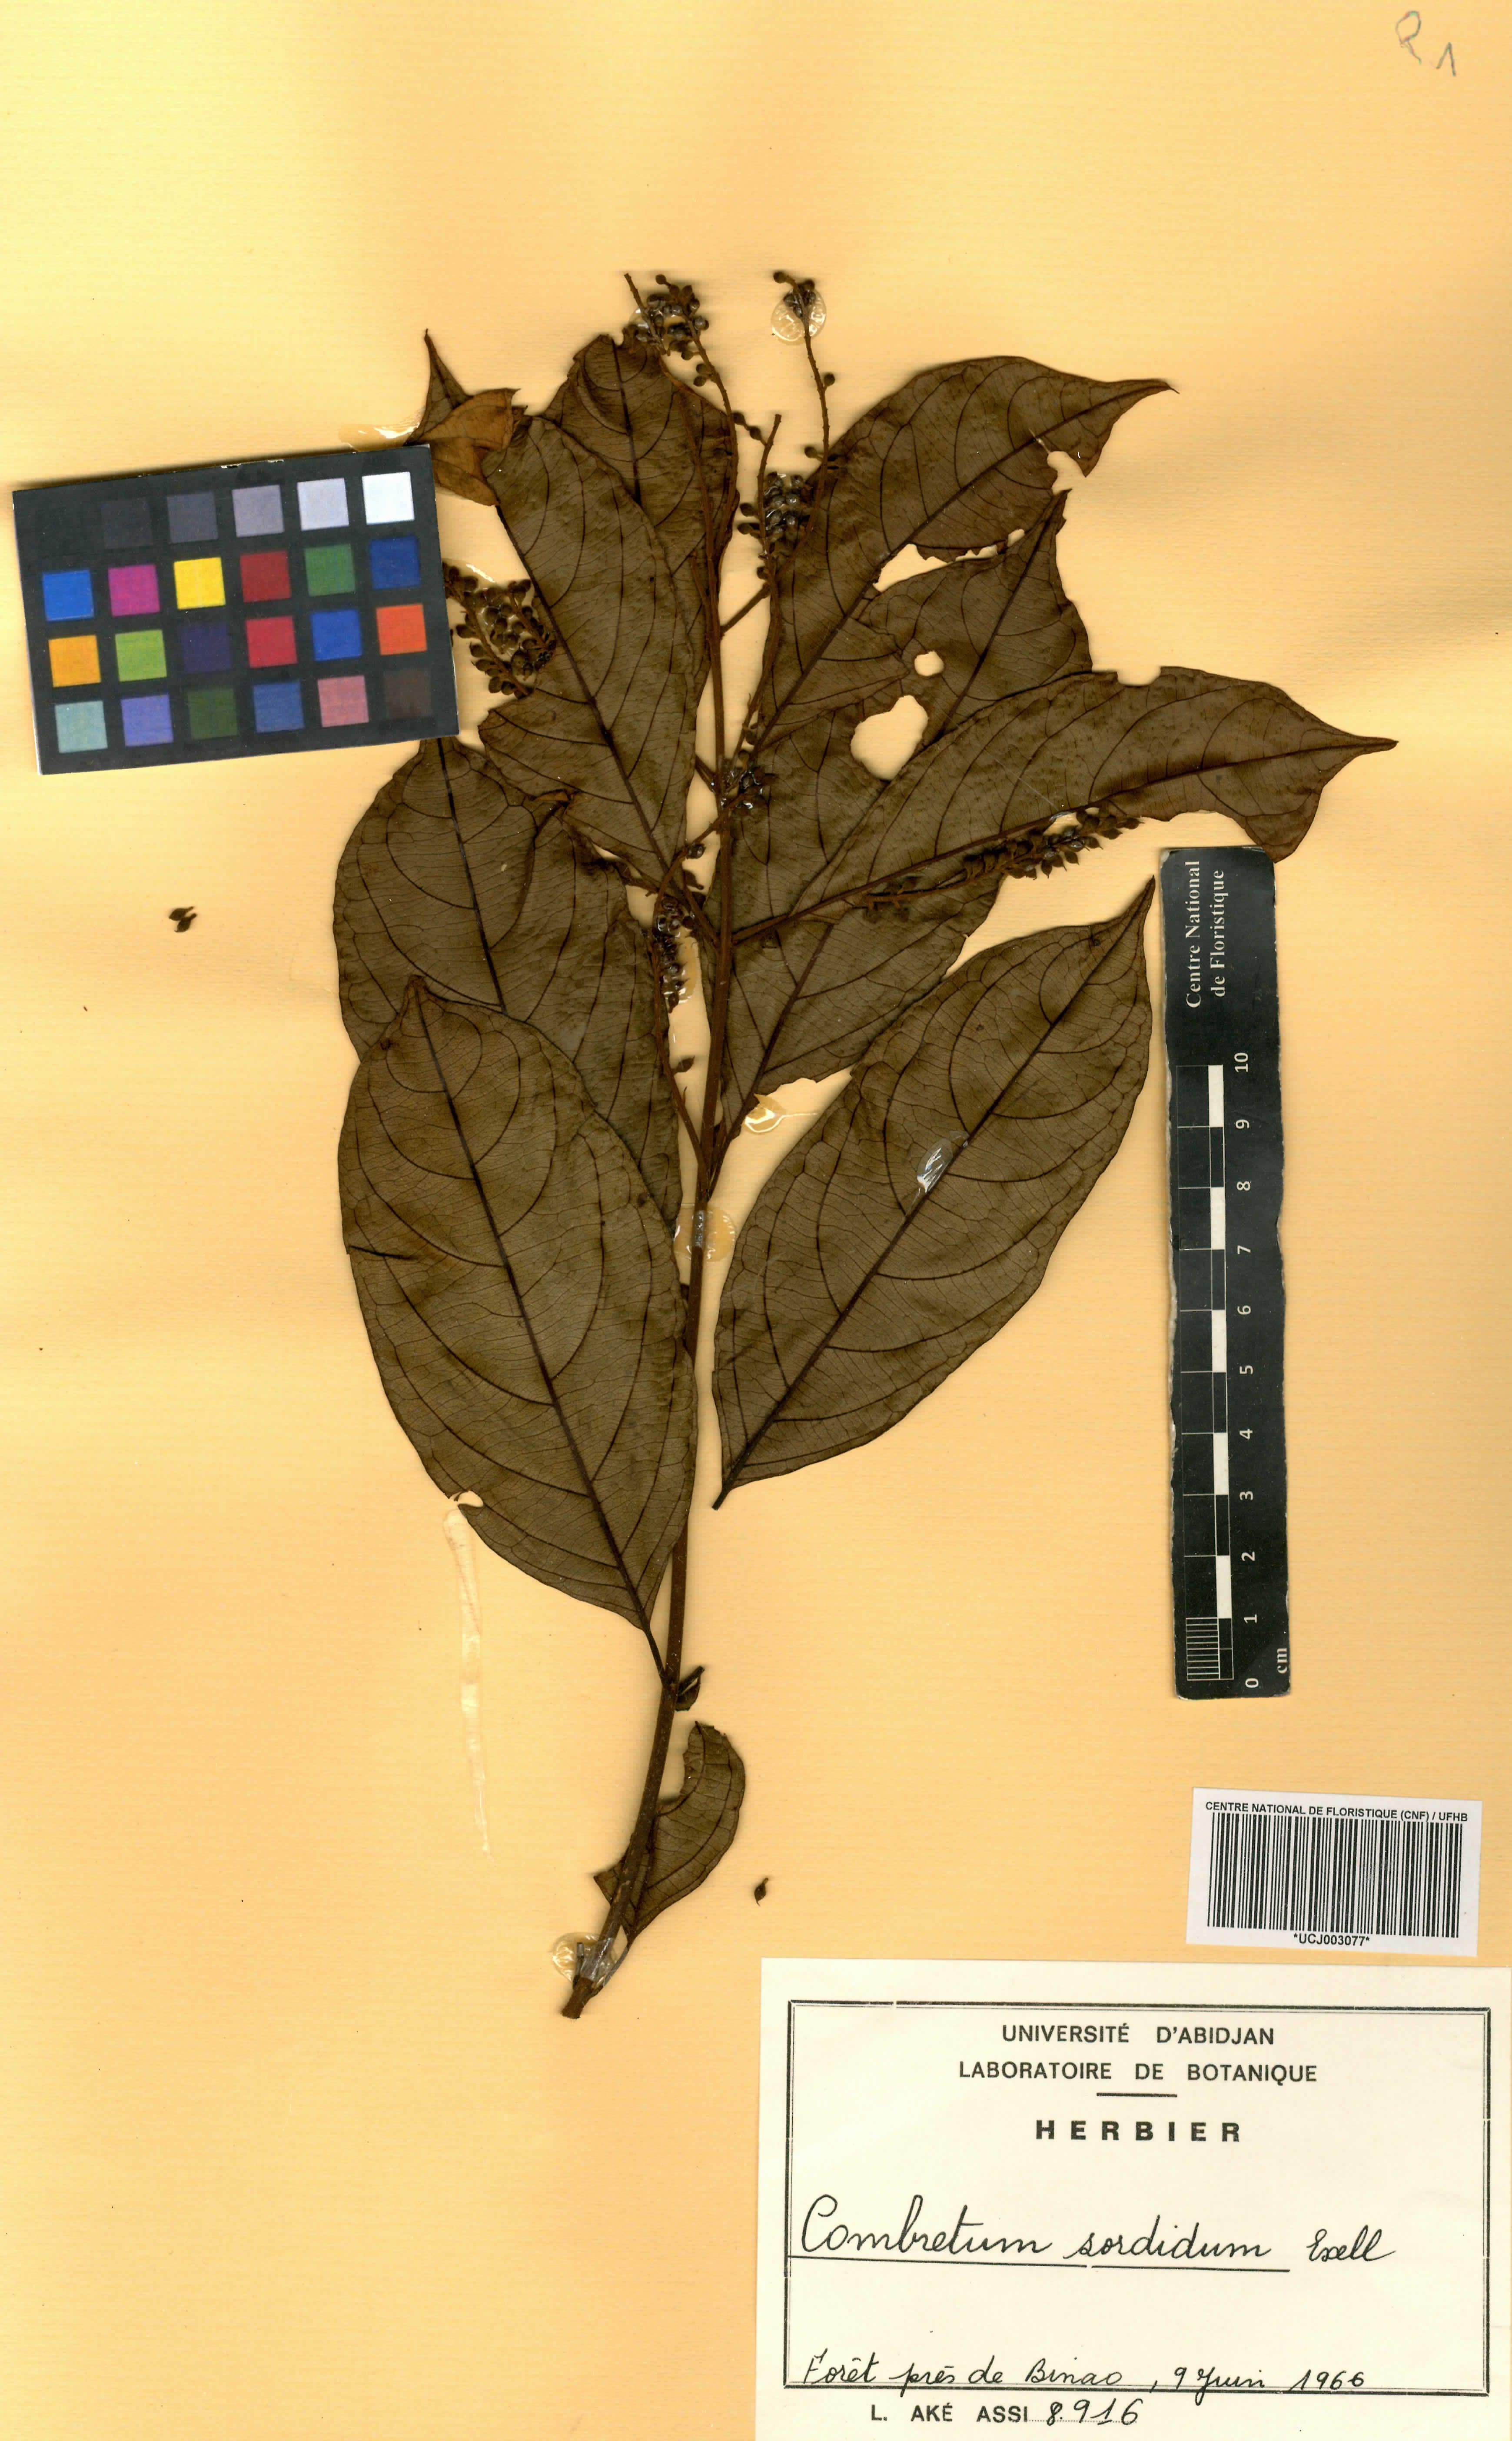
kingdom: Plantae
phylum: Tracheophyta
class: Magnoliopsida
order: Myrtales
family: Combretaceae
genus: Combretum
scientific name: Combretum sordidum
